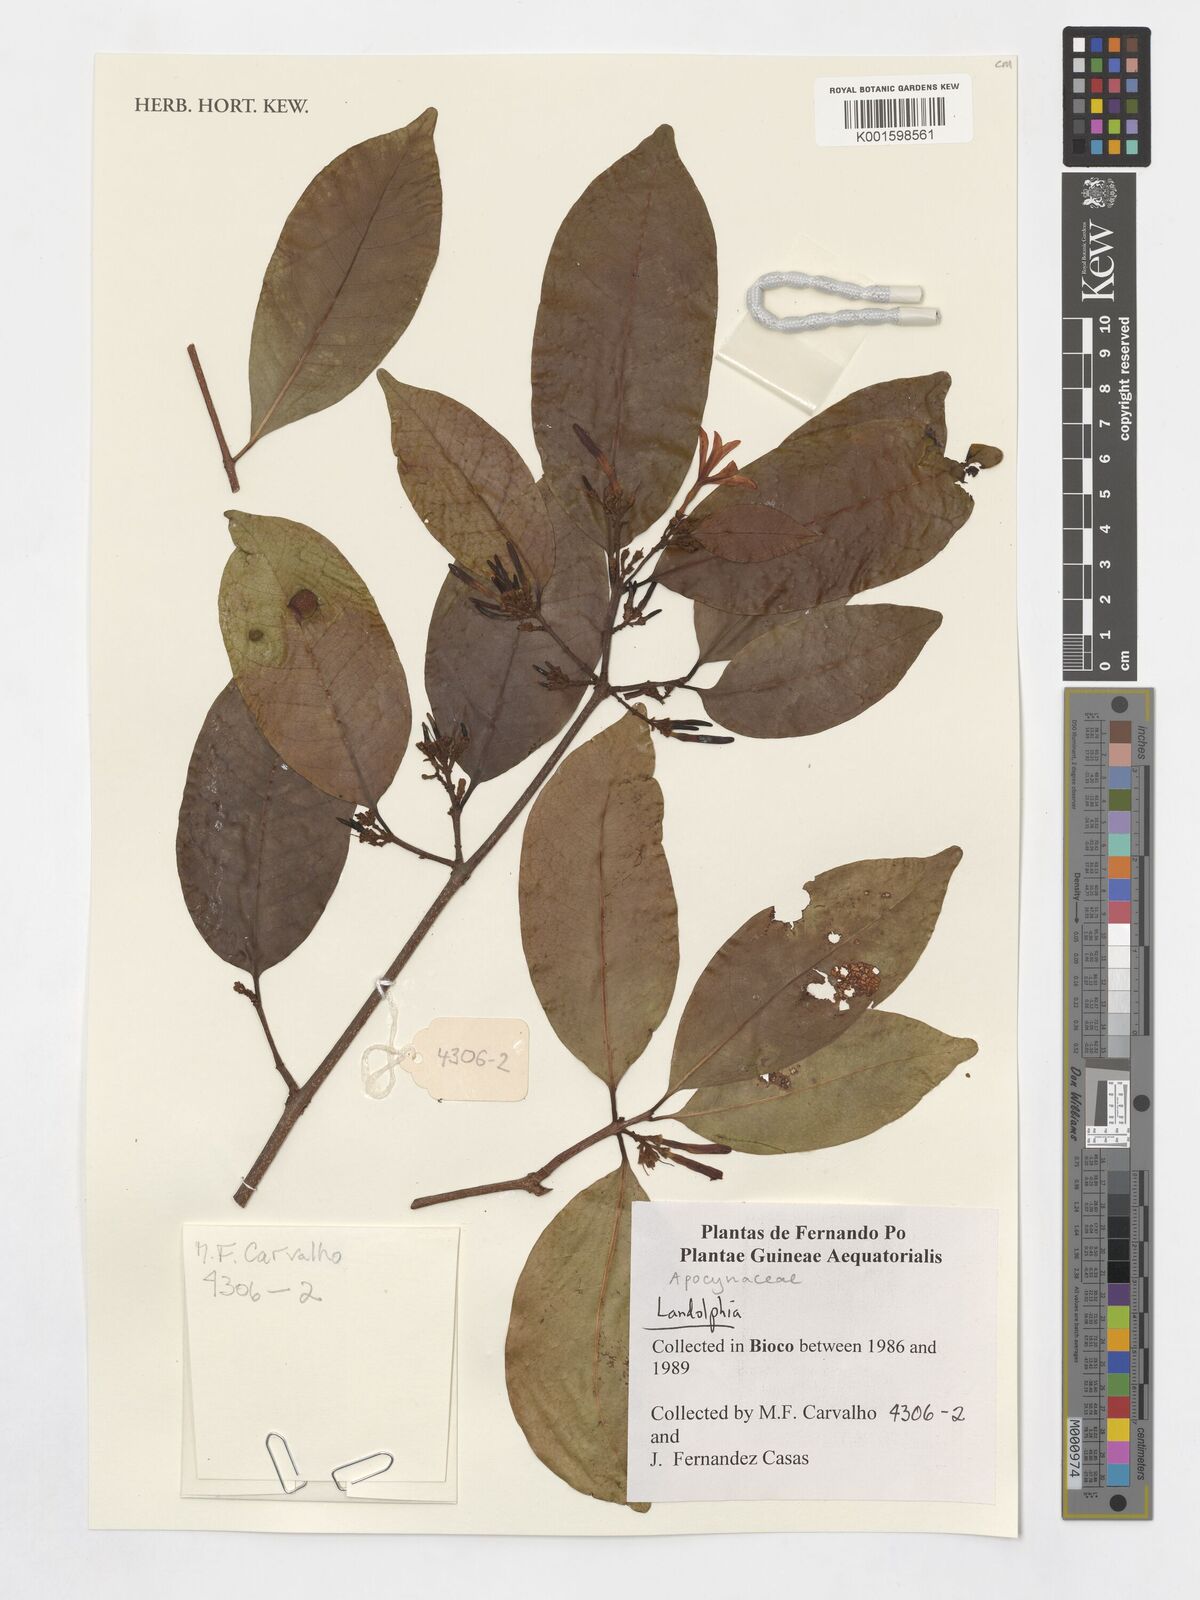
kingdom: Plantae
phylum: Tracheophyta
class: Magnoliopsida
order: Gentianales
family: Apocynaceae
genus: Landolphia
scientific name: Landolphia
